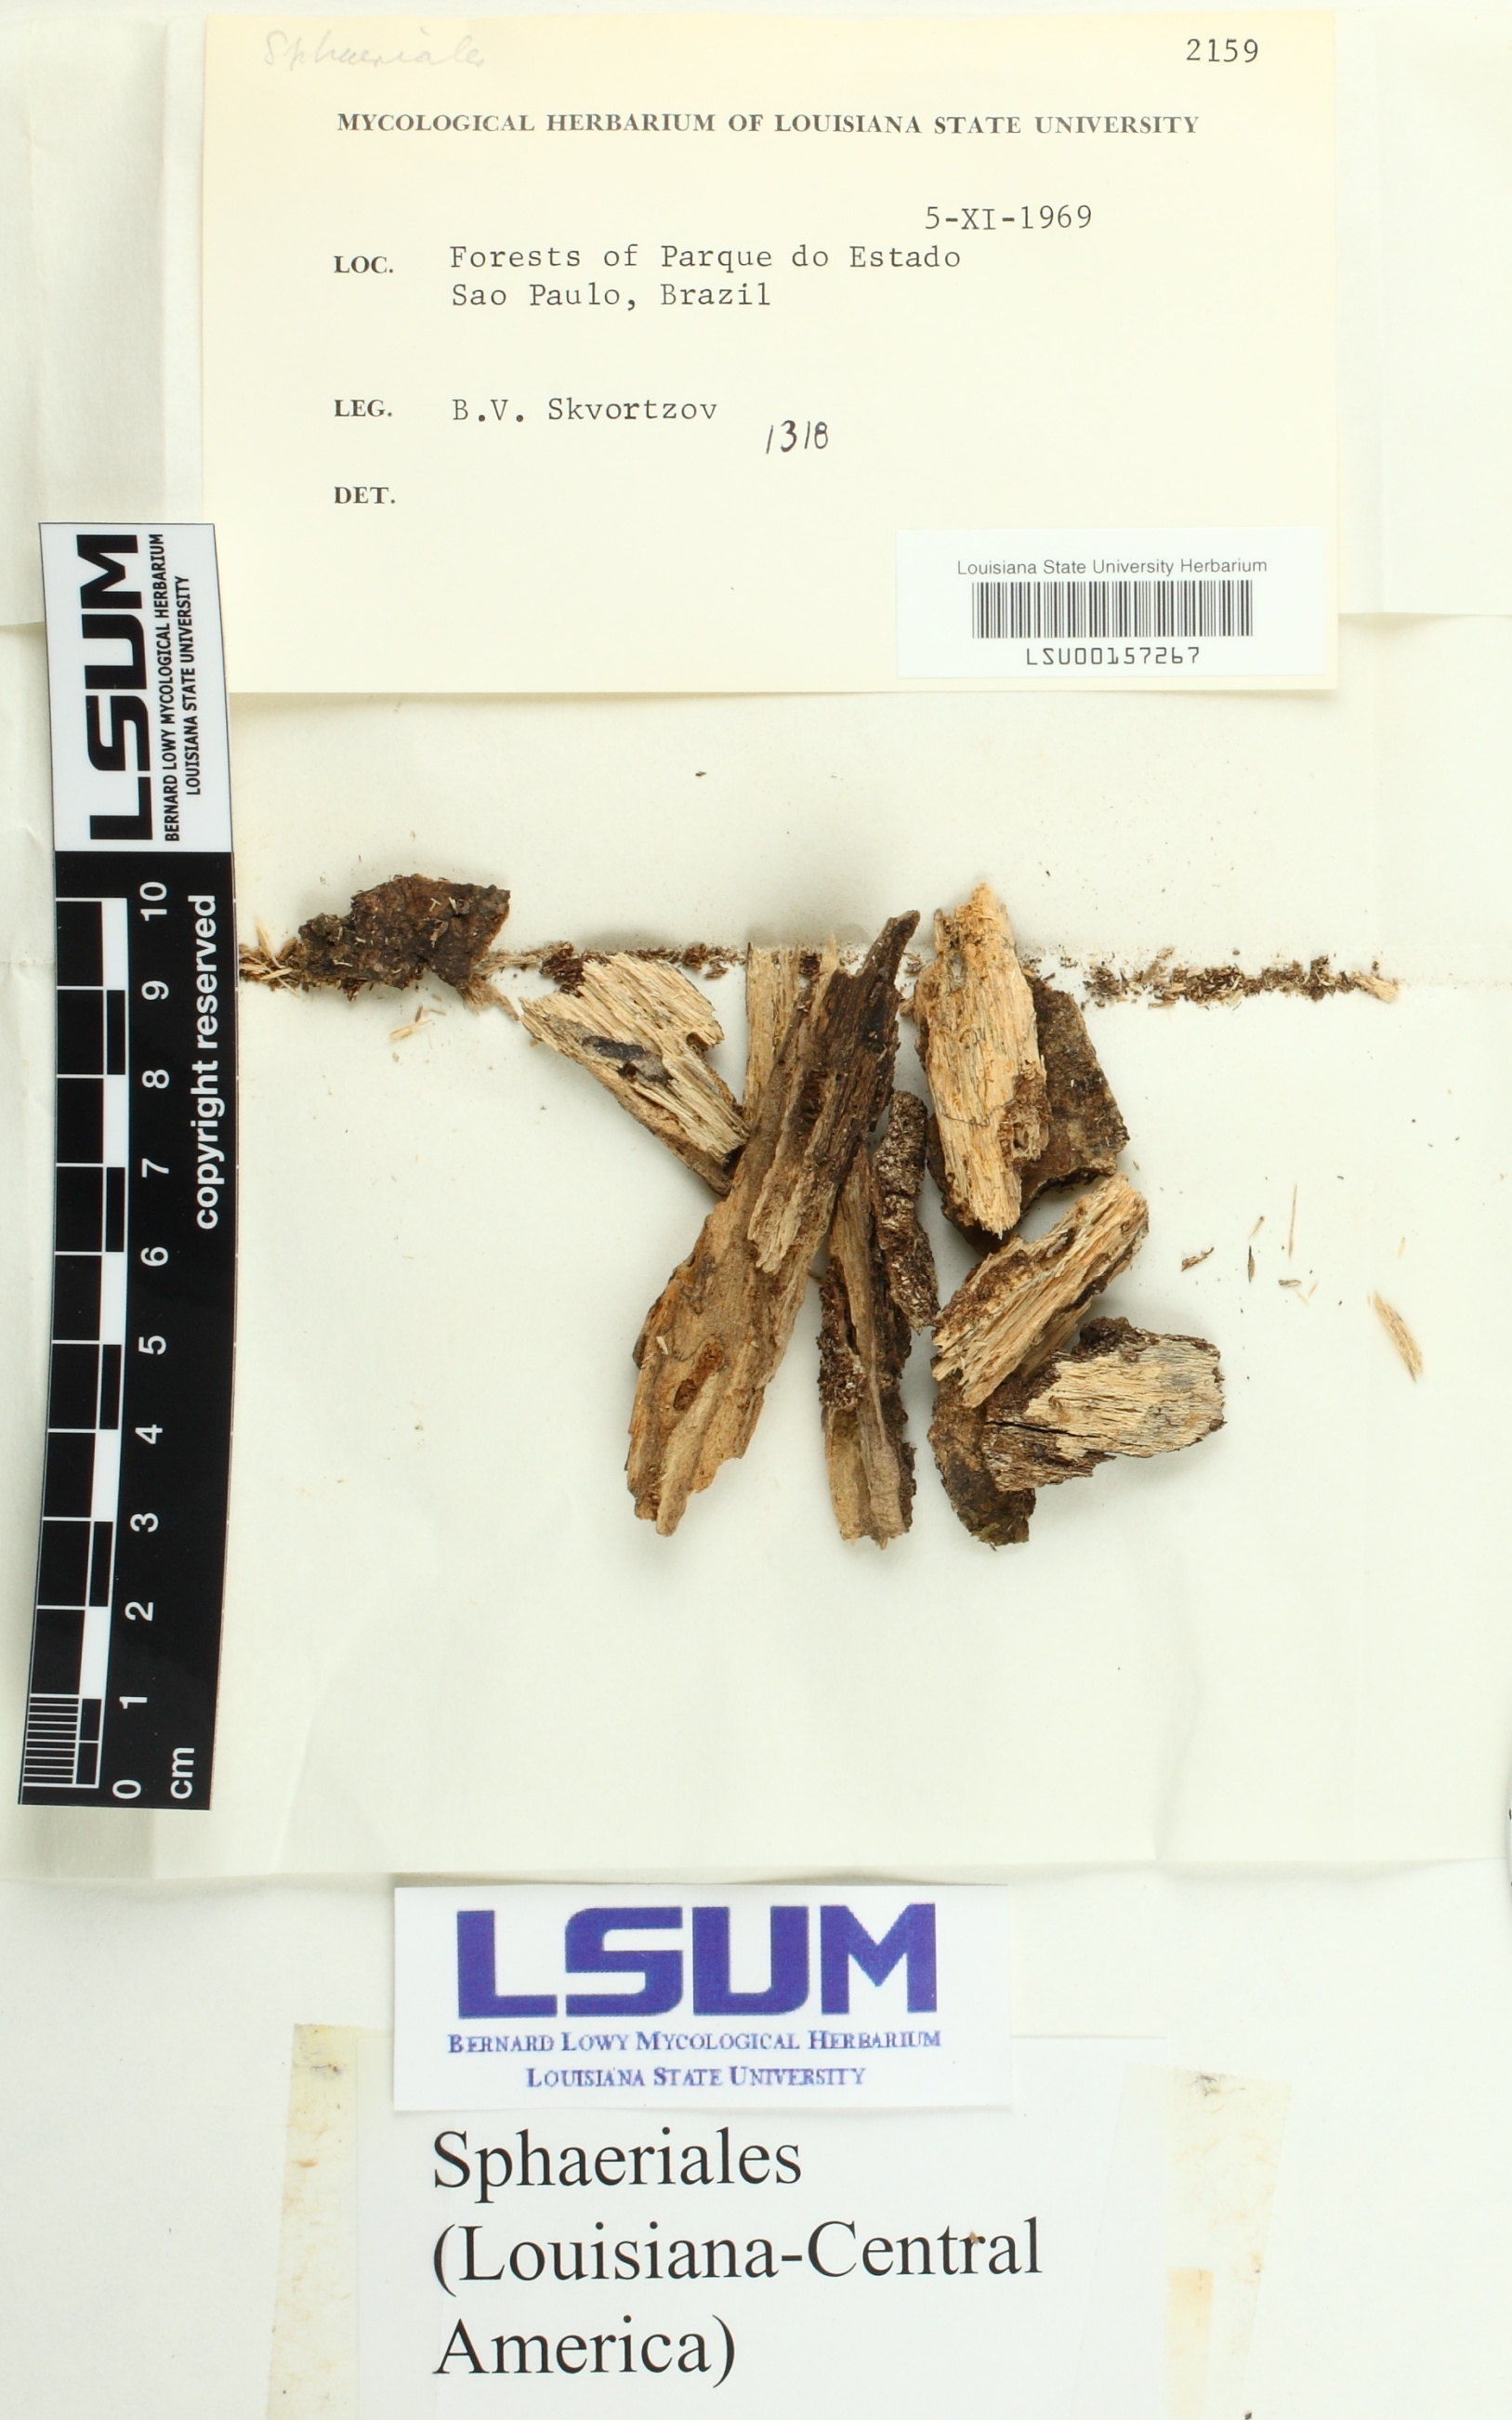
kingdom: Fungi
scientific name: Fungi
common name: Fungi
